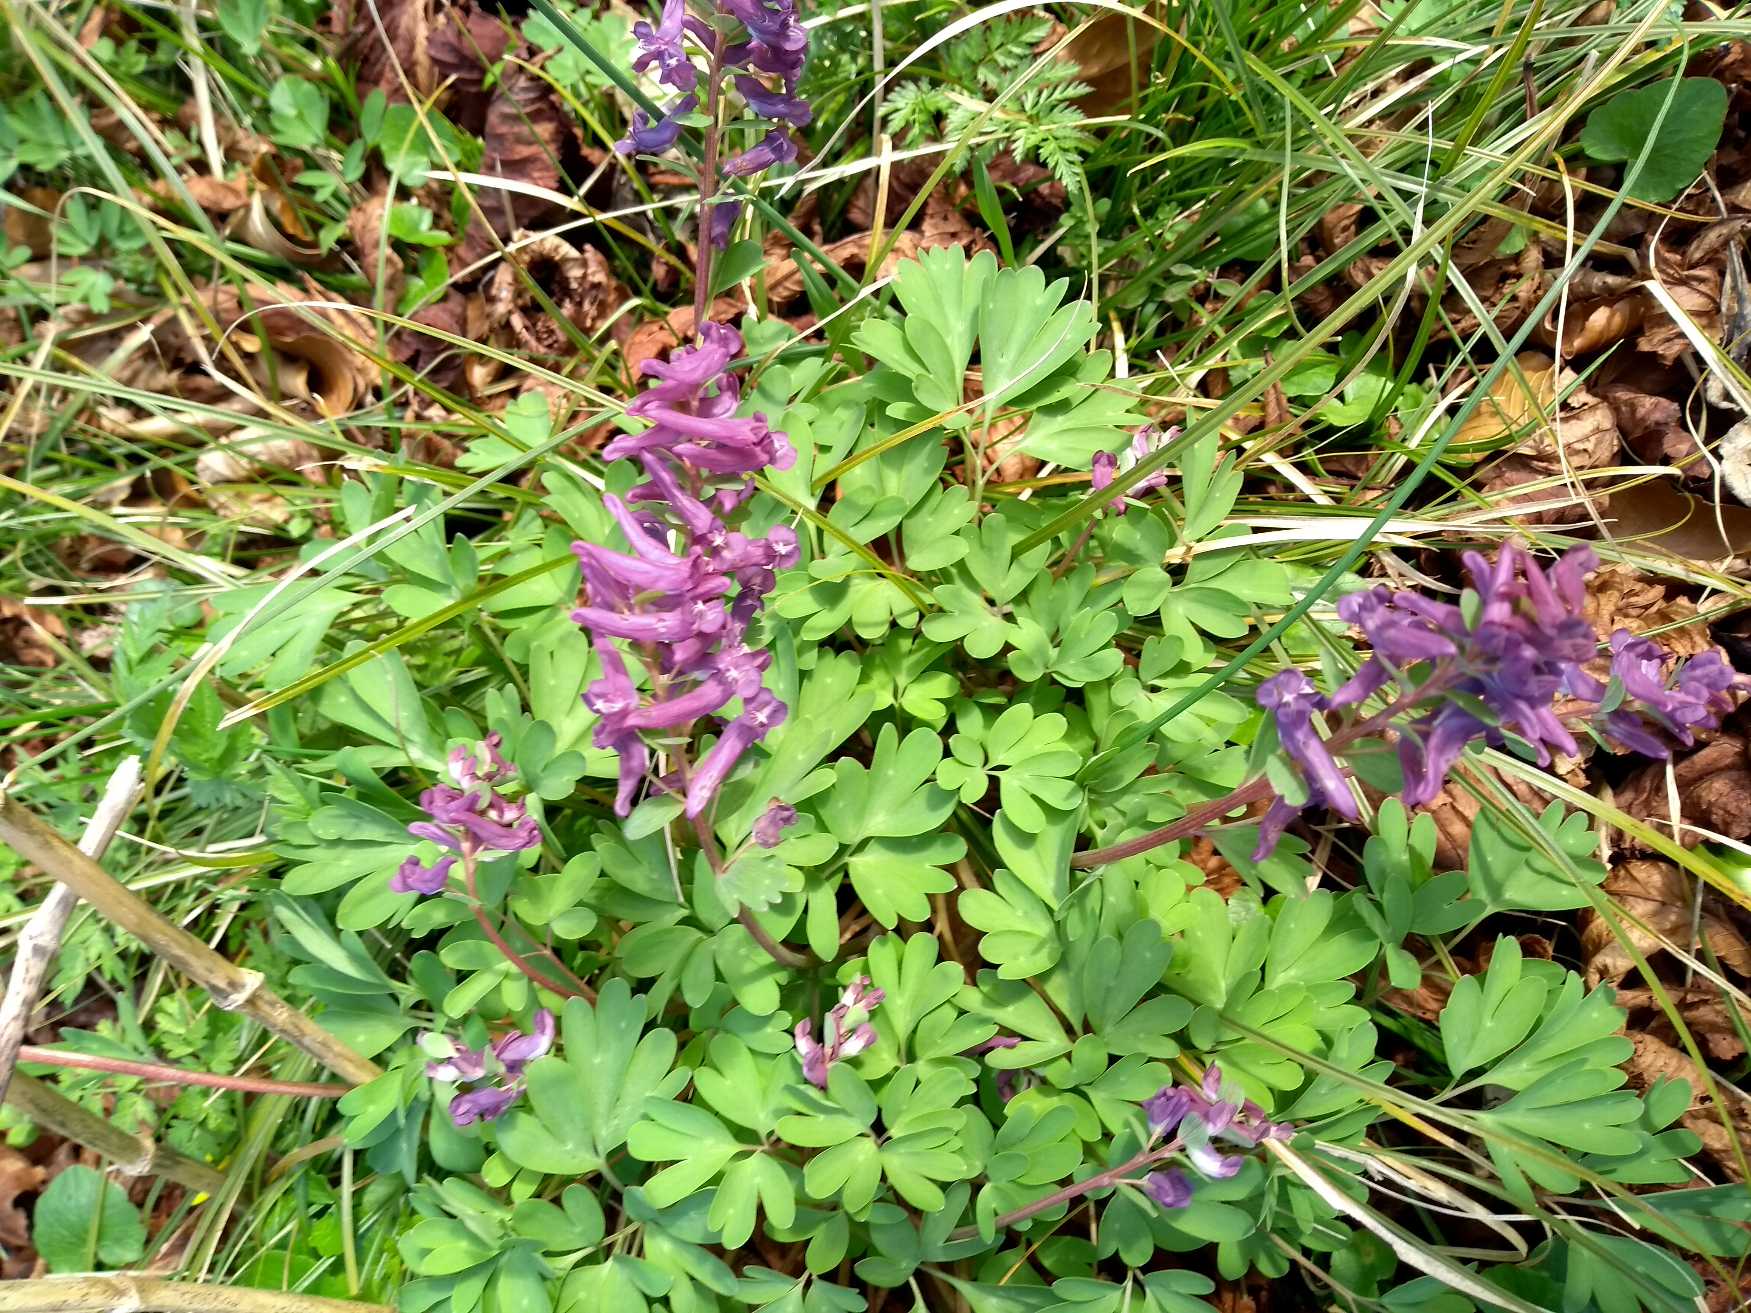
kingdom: Plantae
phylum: Tracheophyta
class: Magnoliopsida
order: Ranunculales
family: Papaveraceae
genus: Corydalis
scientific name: Corydalis solida
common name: Langstilket lærkespore
